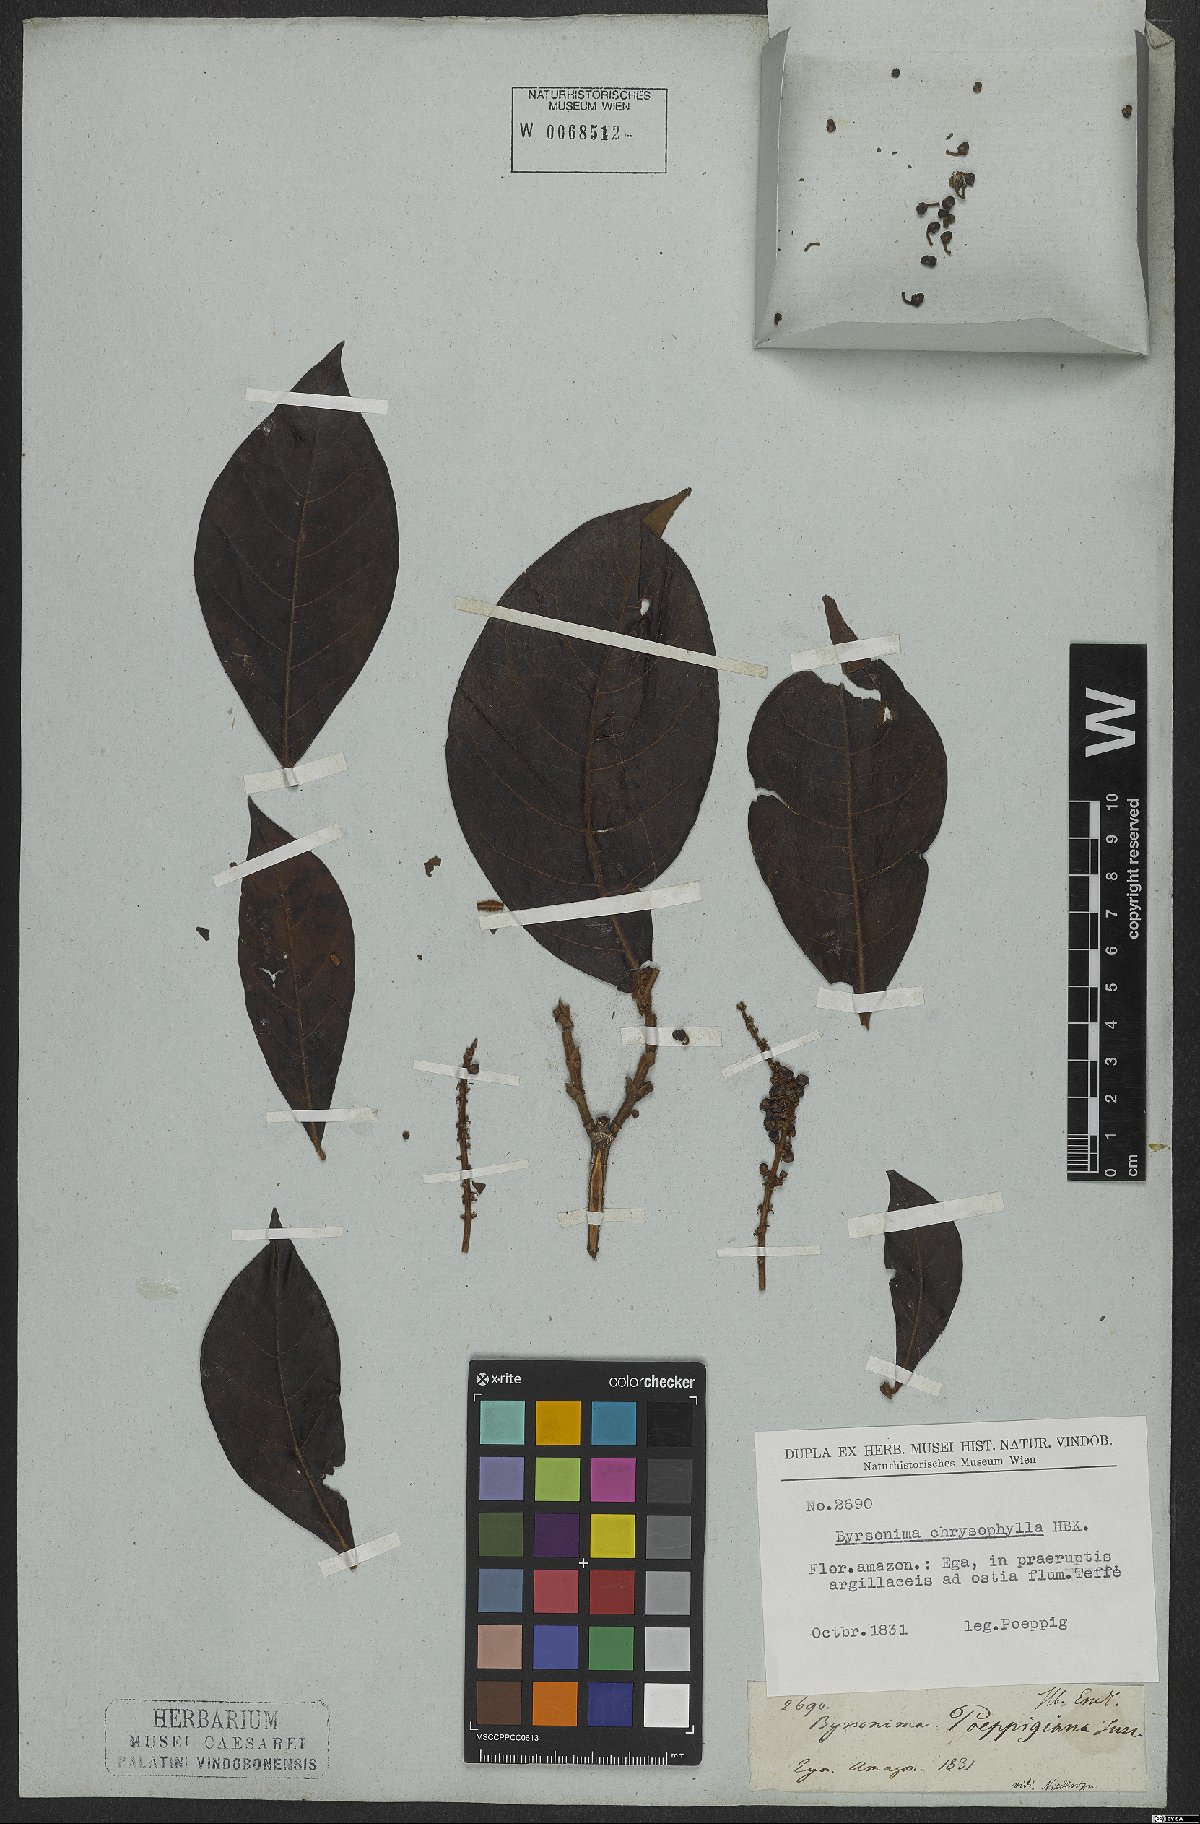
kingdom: Plantae
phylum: Tracheophyta
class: Magnoliopsida
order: Malpighiales
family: Malpighiaceae
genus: Byrsonima
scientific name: Byrsonima poeppigiana
